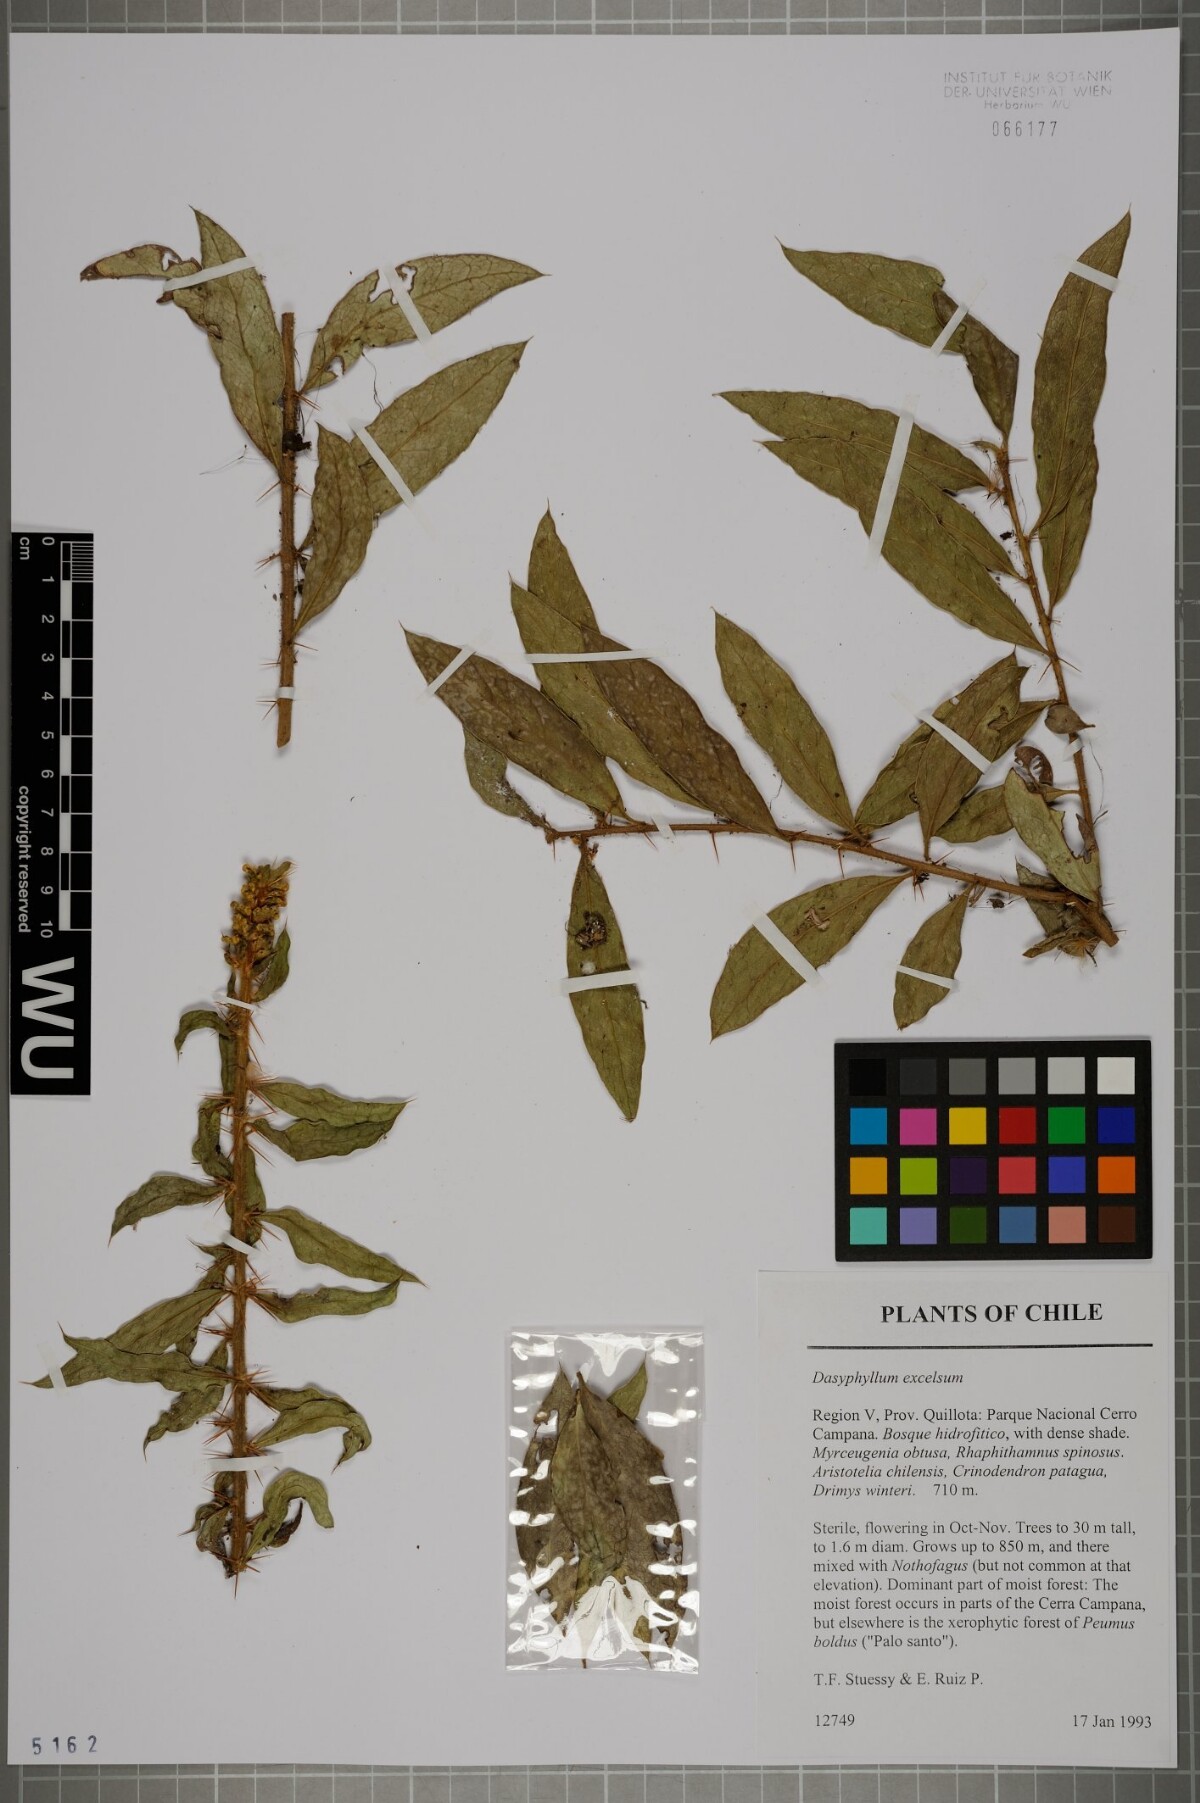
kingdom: Plantae
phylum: Tracheophyta
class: Magnoliopsida
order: Asterales
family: Asteraceae
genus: Archidasyphyllum
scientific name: Archidasyphyllum excelsum
